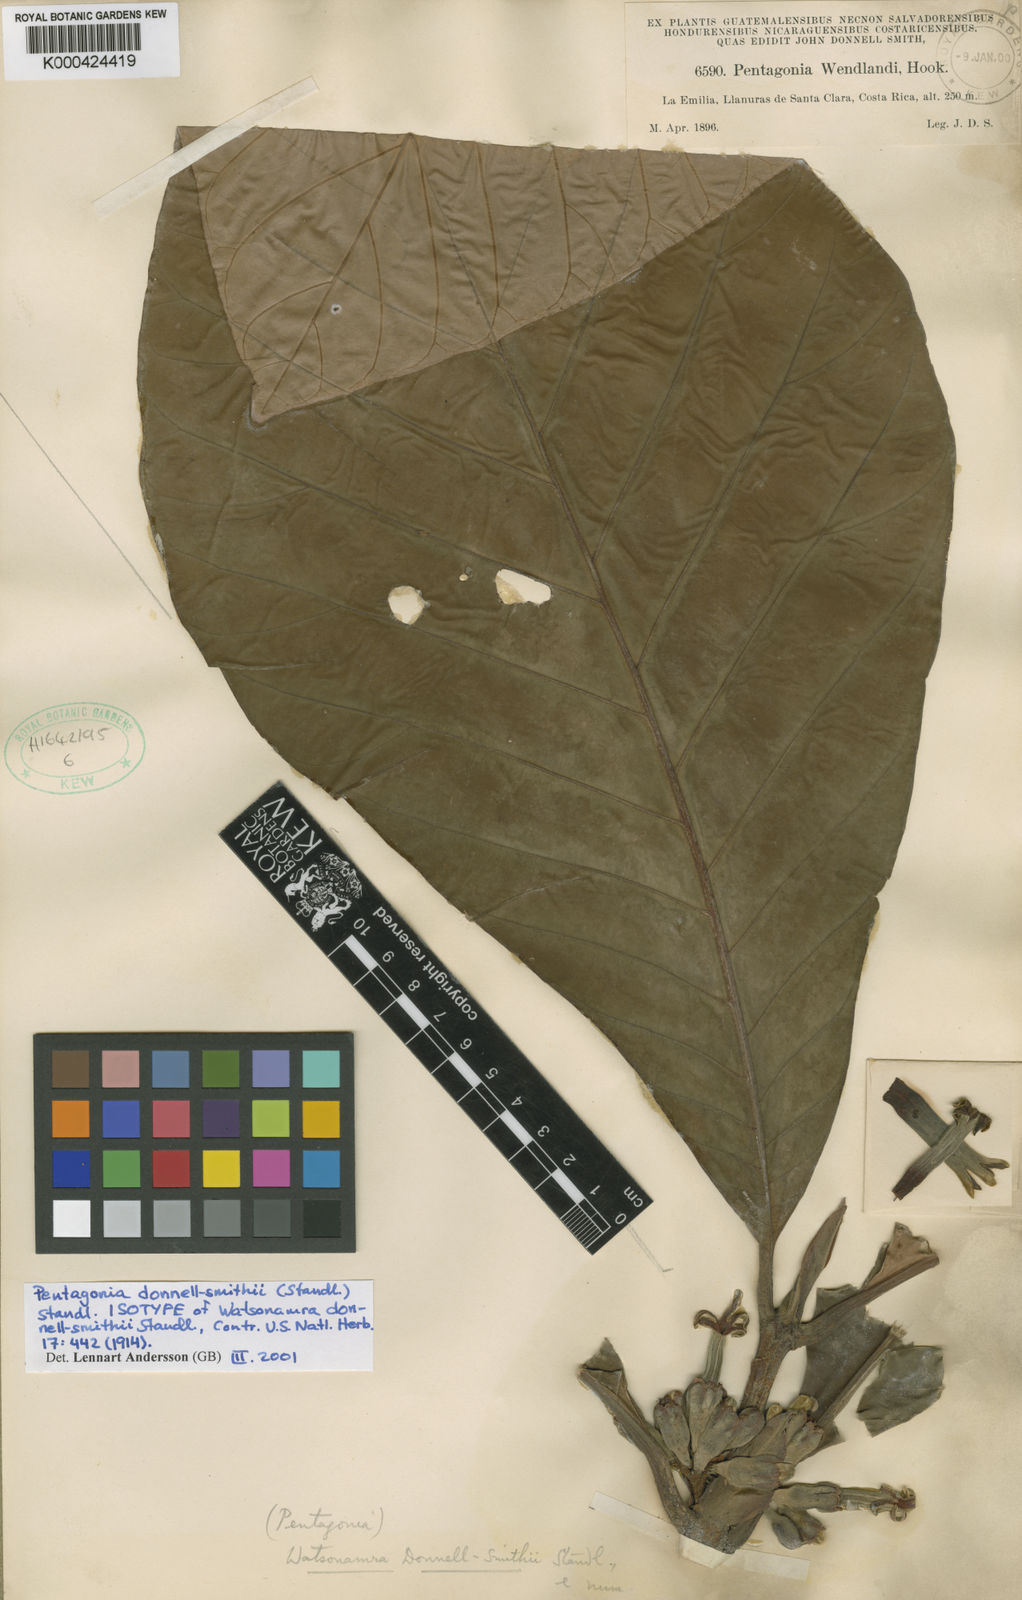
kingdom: Plantae
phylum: Tracheophyta
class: Magnoliopsida
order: Gentianales
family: Rubiaceae
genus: Pentagonia
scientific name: Pentagonia macrophylla
